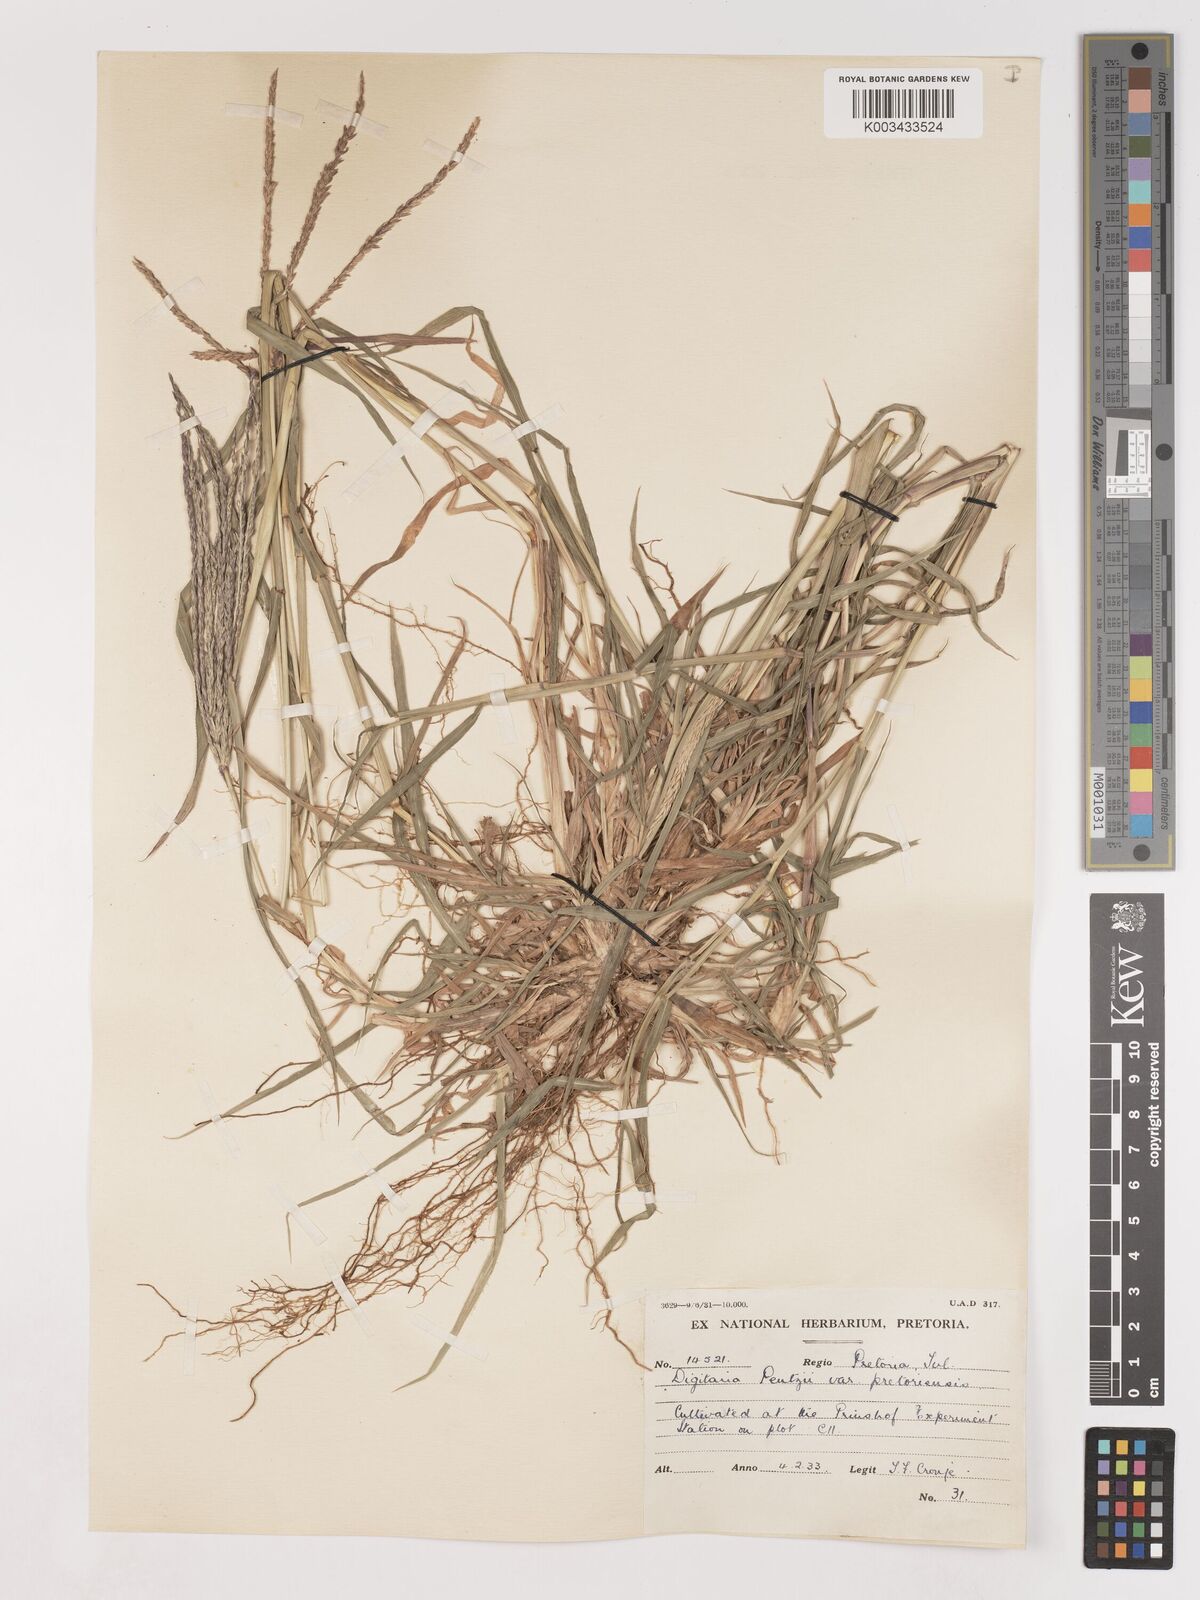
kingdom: Plantae
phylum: Tracheophyta
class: Liliopsida
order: Poales
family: Poaceae
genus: Digitaria
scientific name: Digitaria eriantha
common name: Digitgrass
